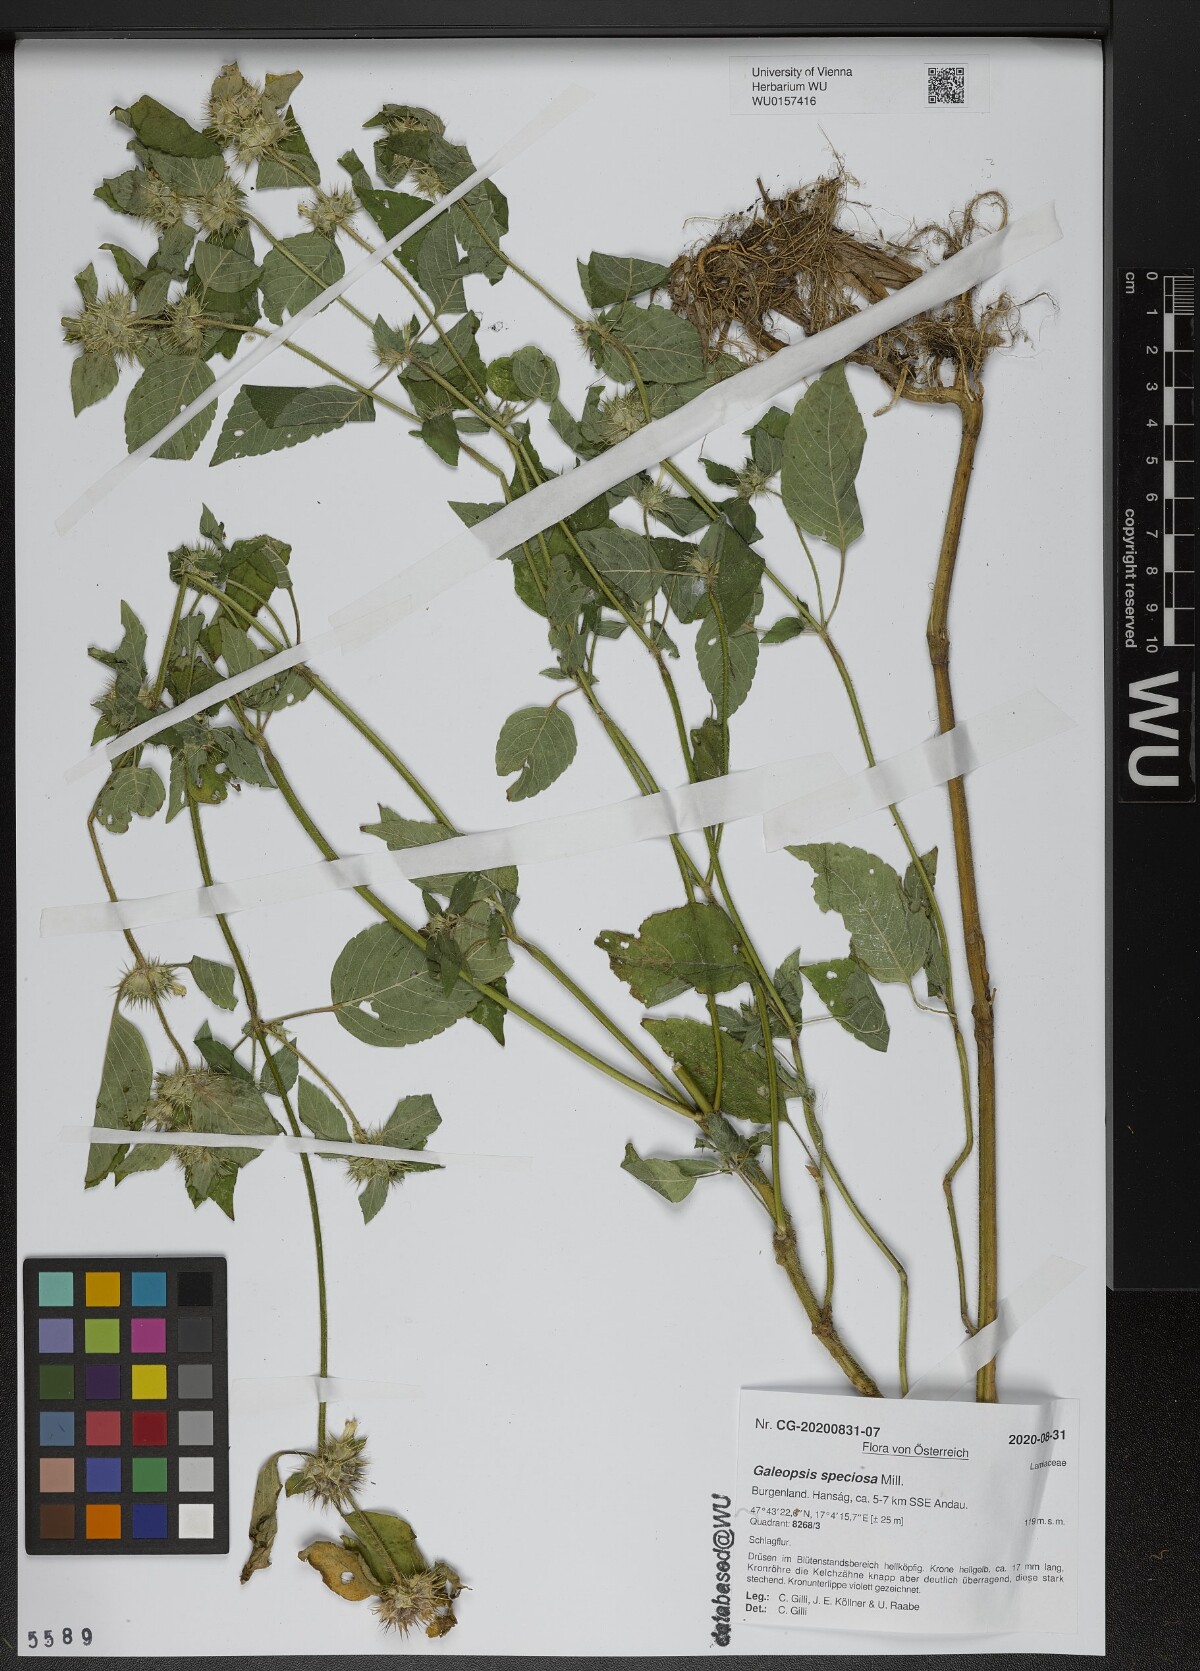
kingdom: Plantae
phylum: Tracheophyta
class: Magnoliopsida
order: Lamiales
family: Lamiaceae
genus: Galeopsis
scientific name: Galeopsis speciosa
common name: Large-flowered hemp-nettle
